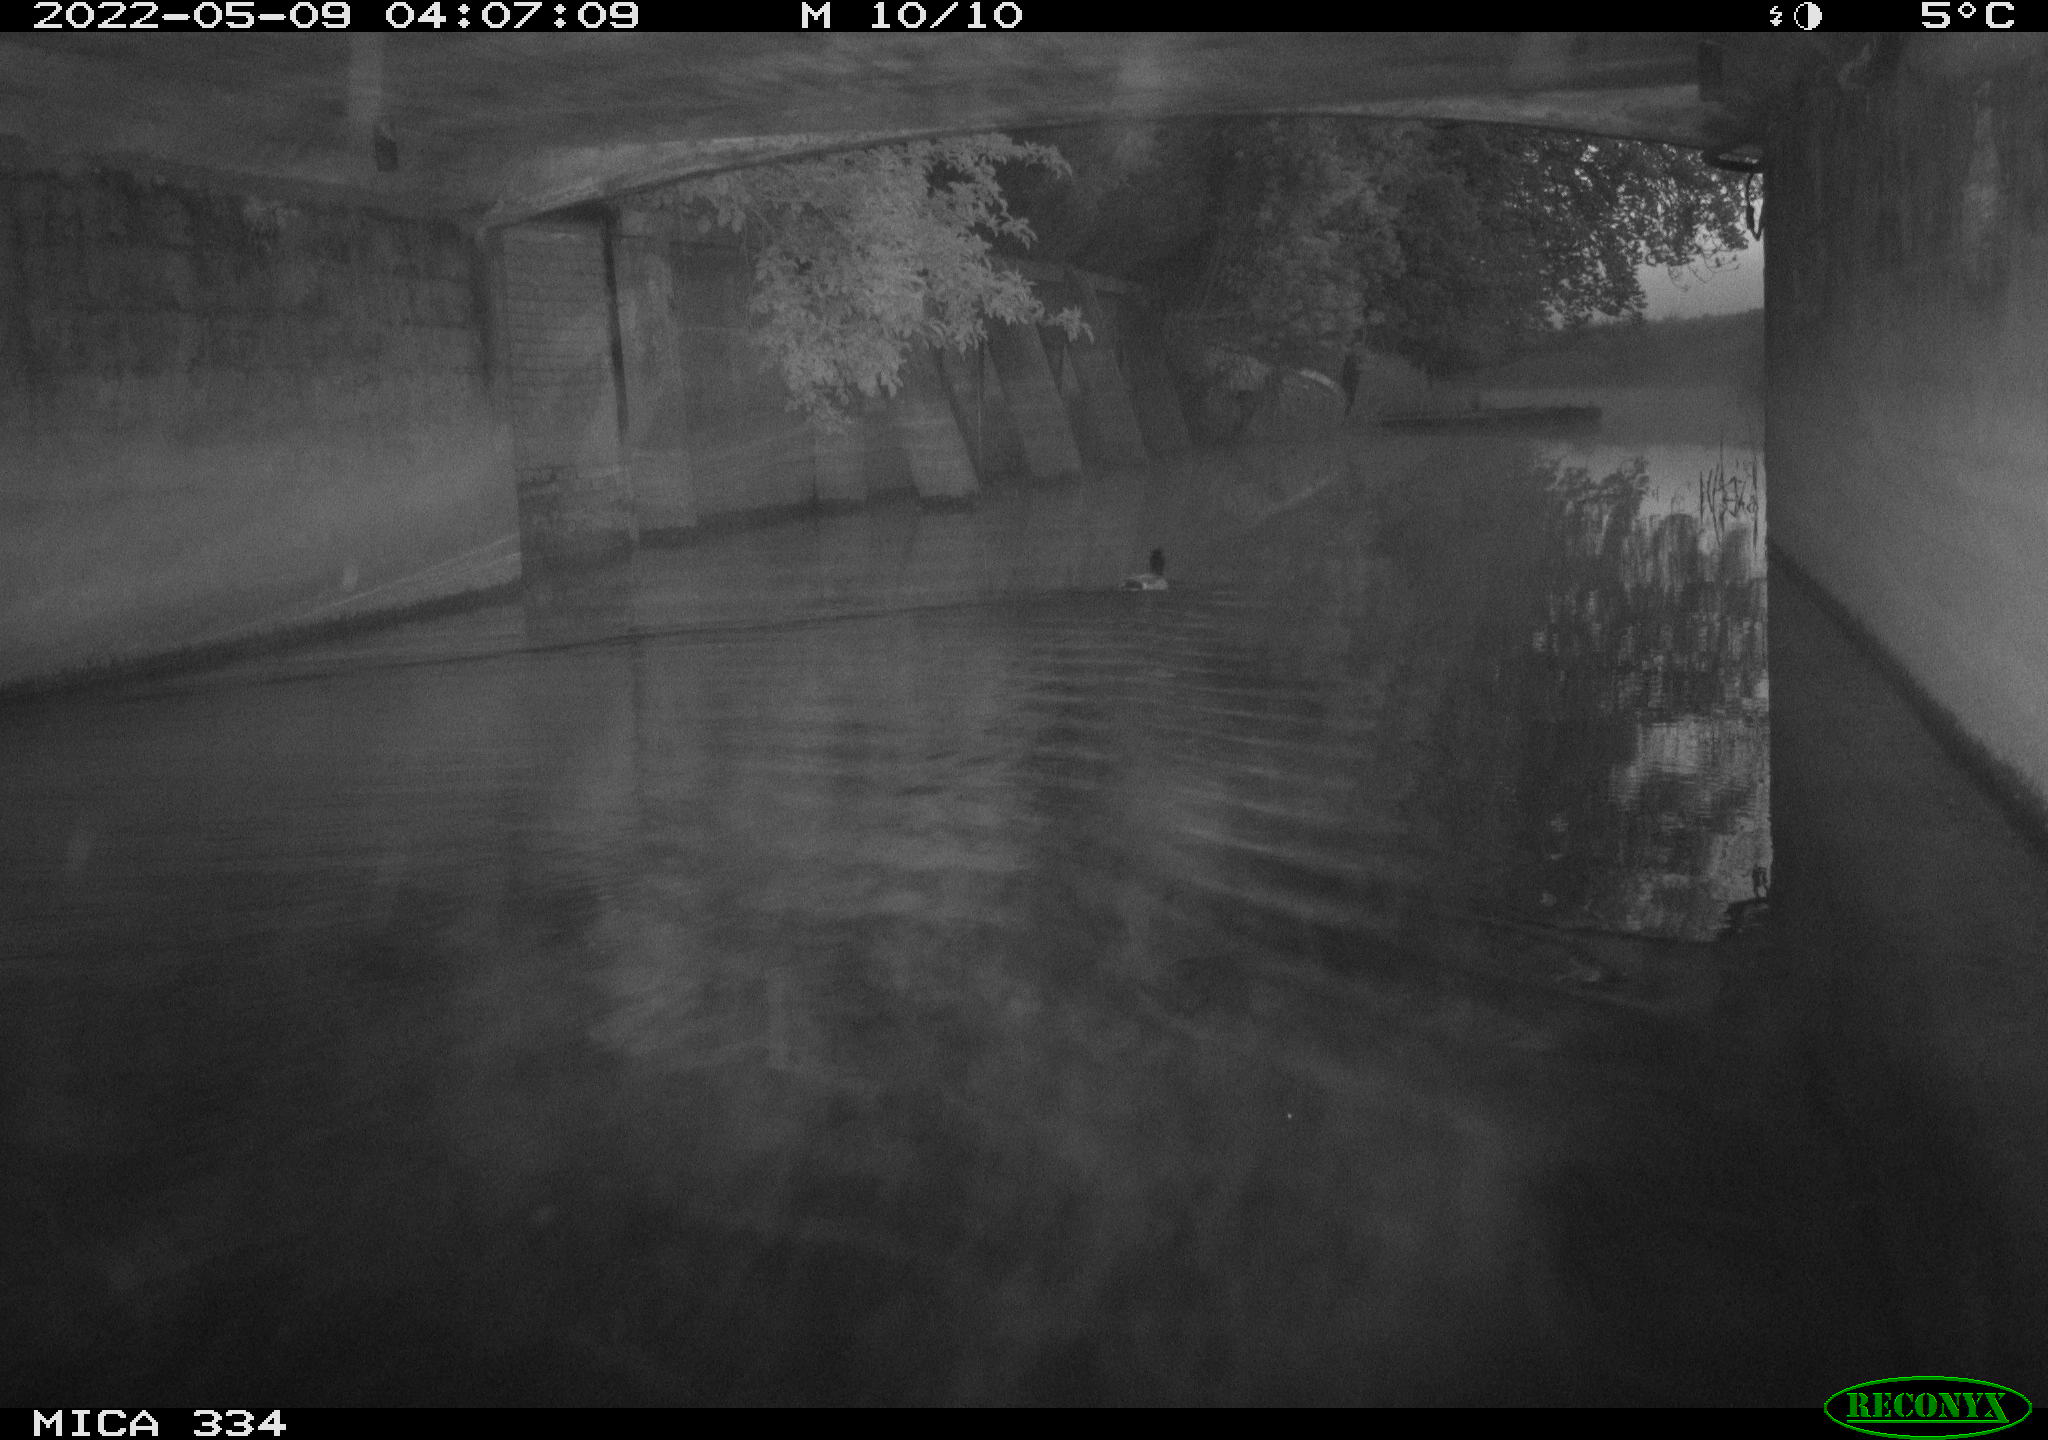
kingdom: Animalia
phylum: Chordata
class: Aves
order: Anseriformes
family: Anatidae
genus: Anas
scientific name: Anas platyrhynchos
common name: Mallard
